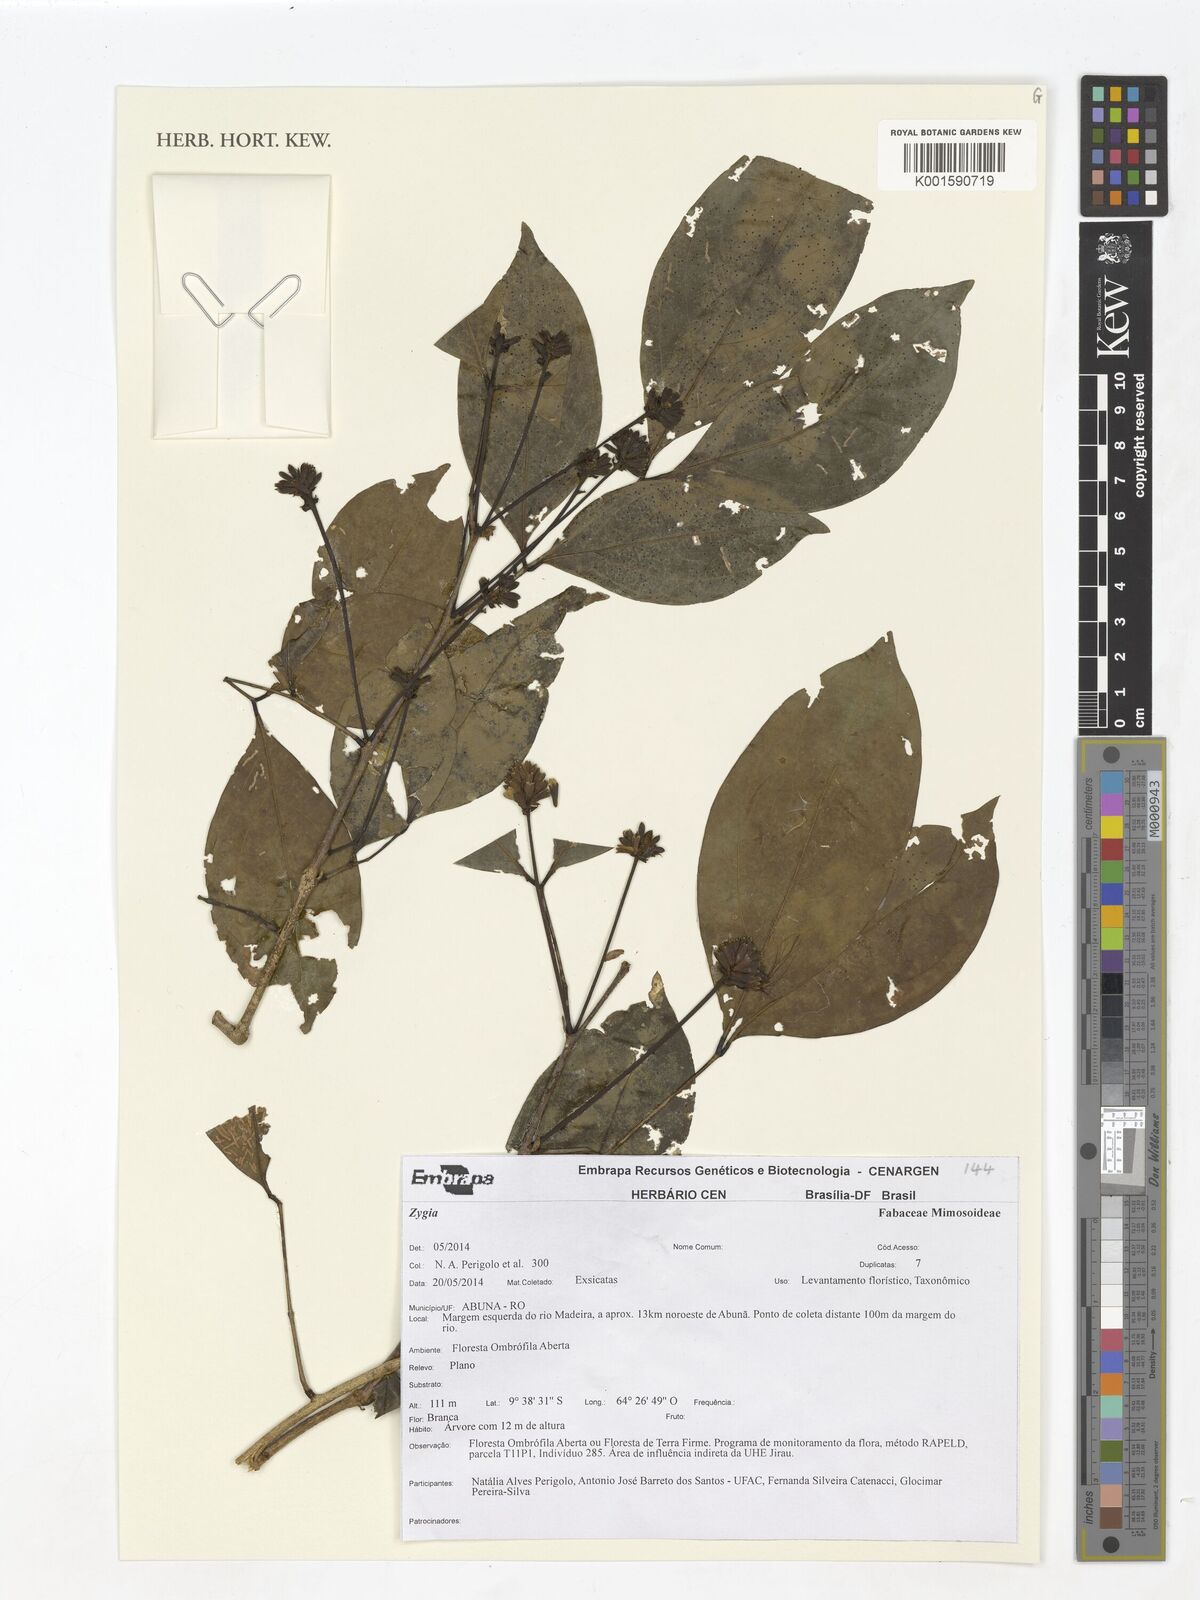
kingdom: Plantae
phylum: Tracheophyta
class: Magnoliopsida
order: Fabales
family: Fabaceae
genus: Zygia
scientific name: Zygia
